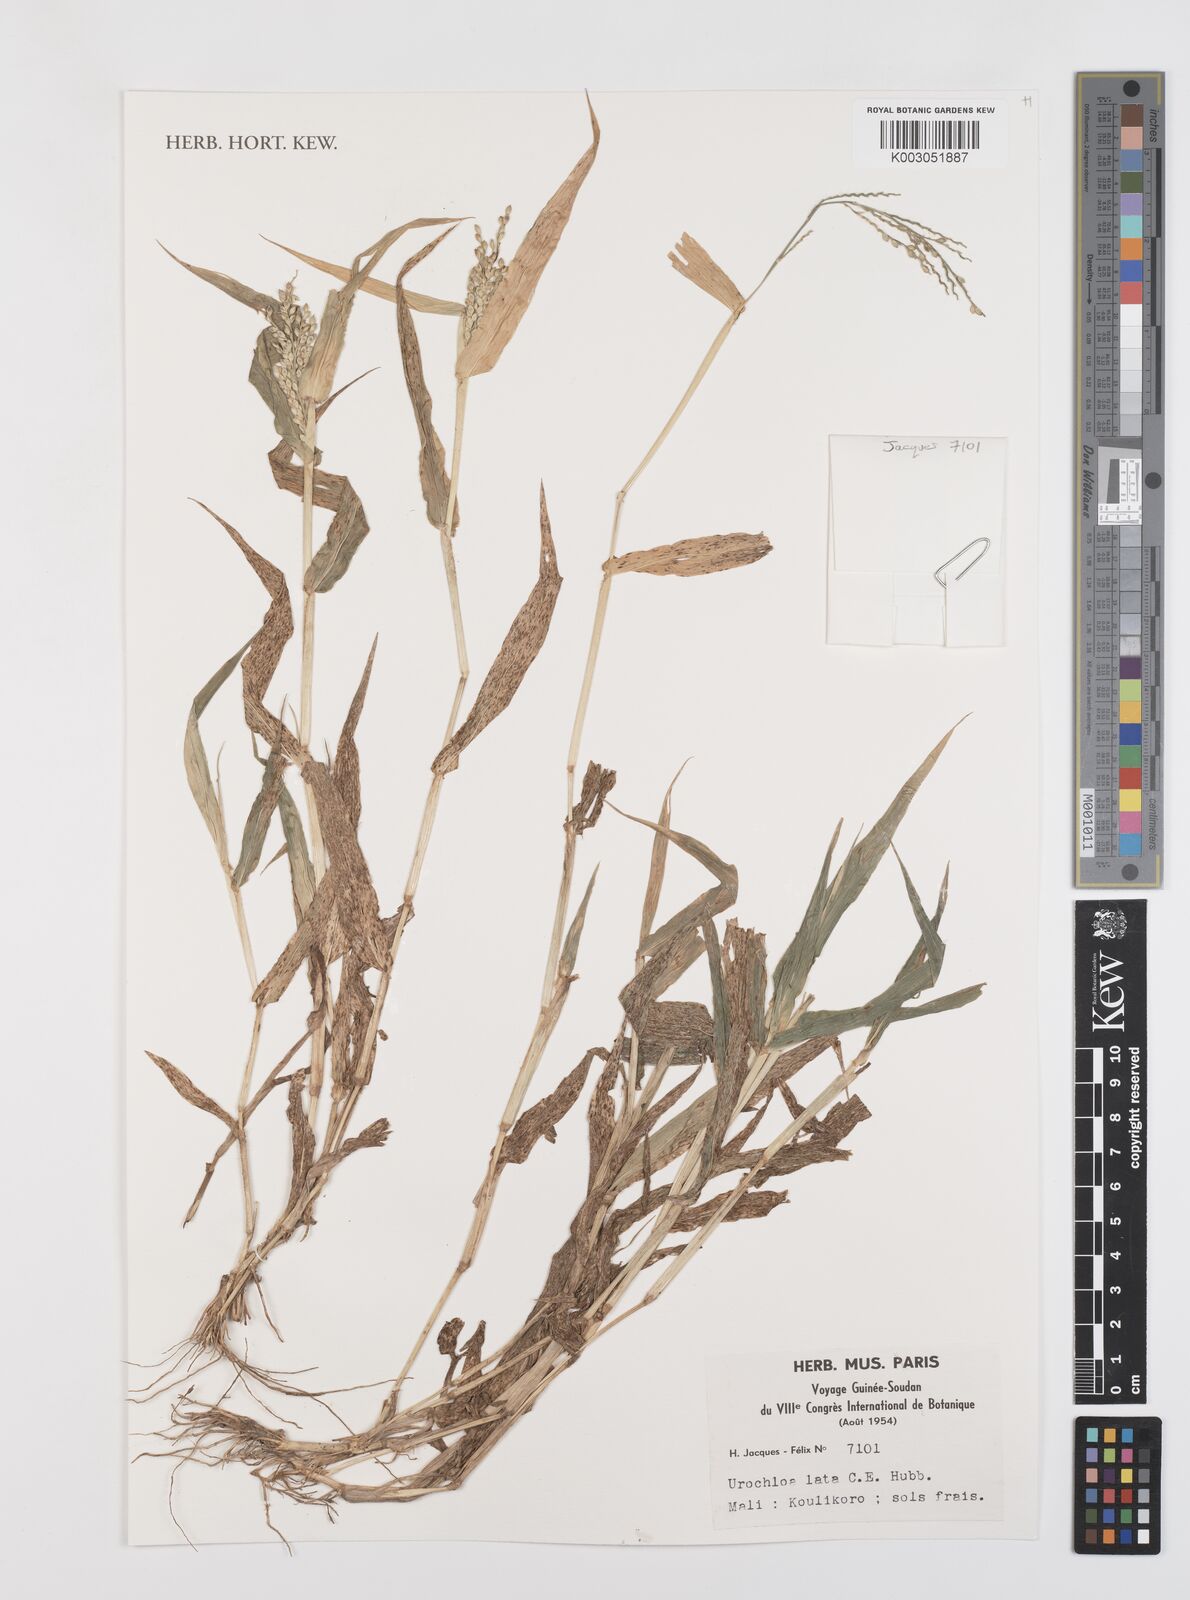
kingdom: Plantae
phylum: Tracheophyta
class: Liliopsida
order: Poales
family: Poaceae
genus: Urochloa
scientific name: Urochloa lata
